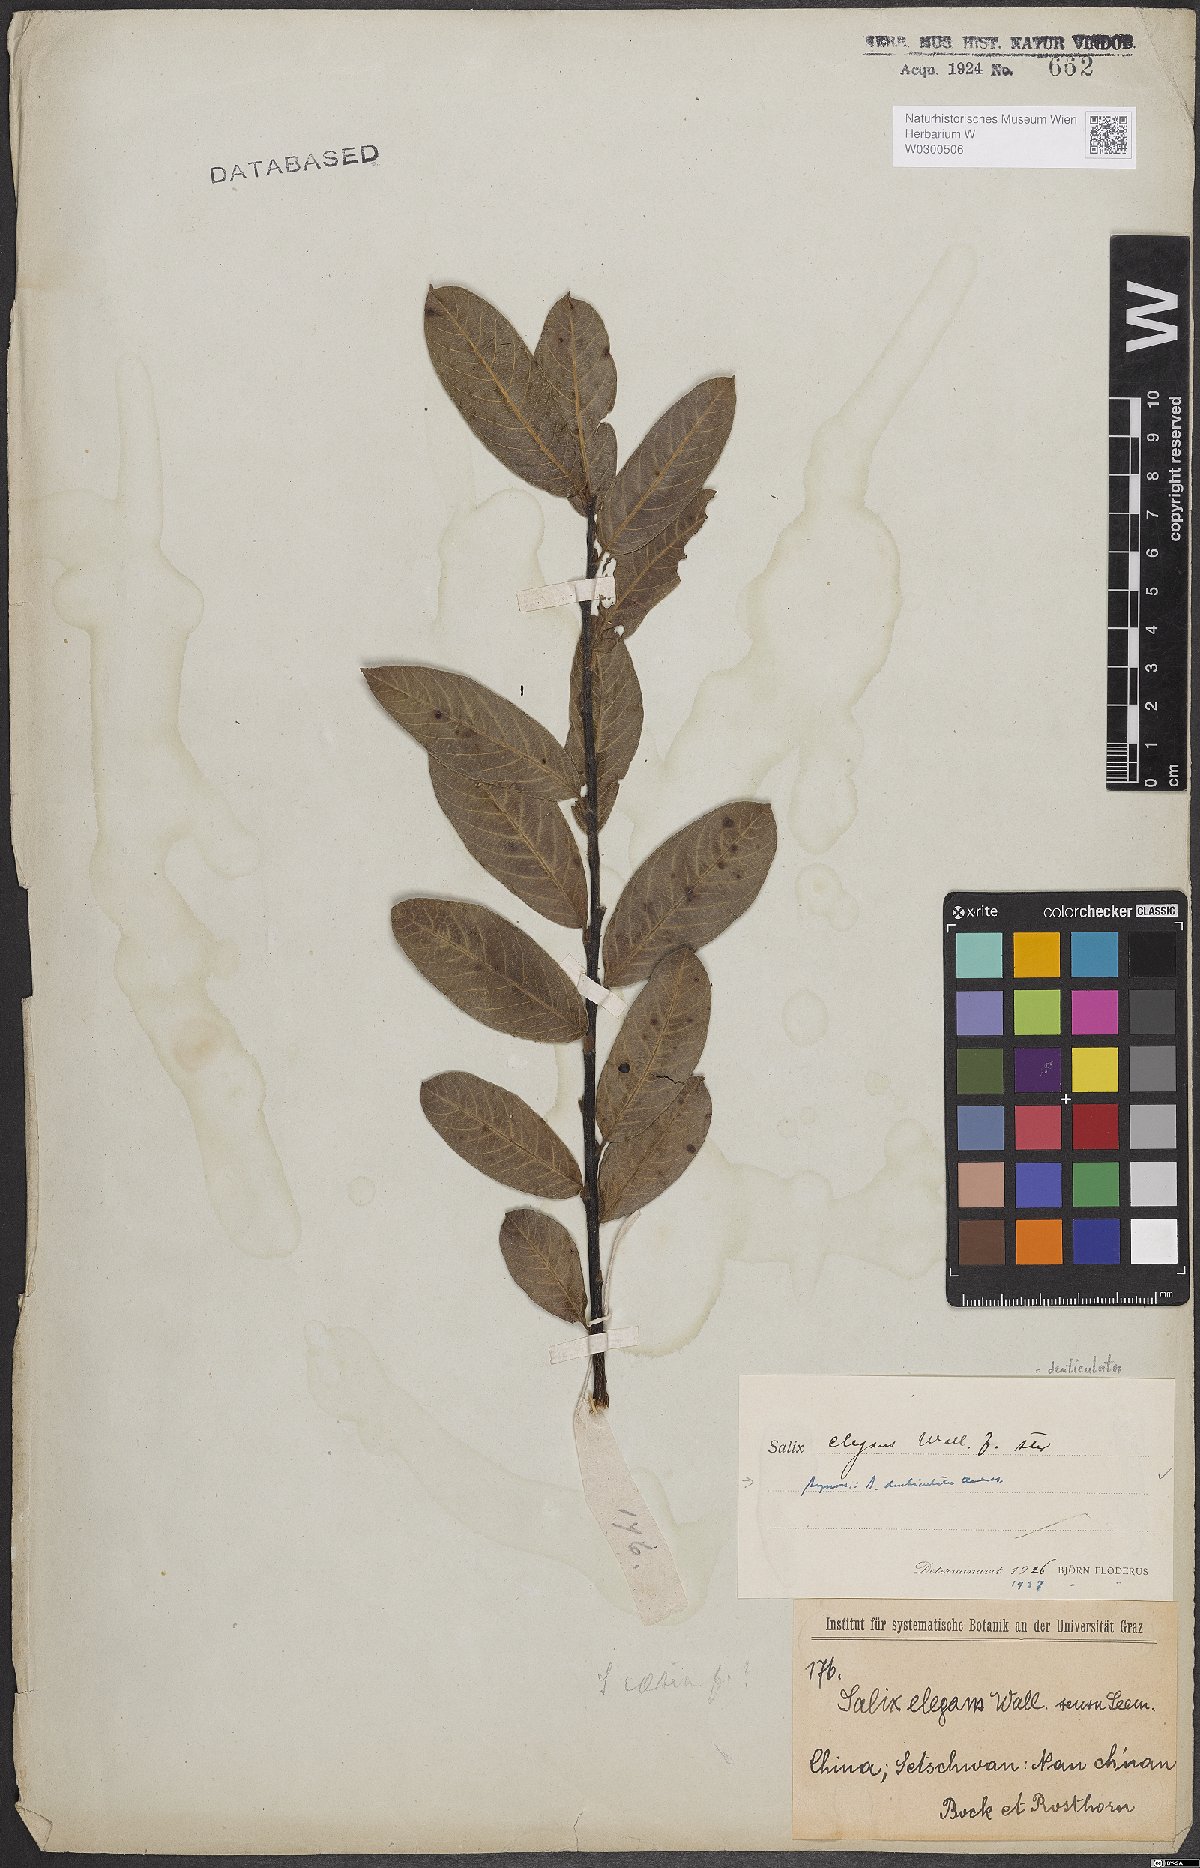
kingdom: Plantae
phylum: Tracheophyta
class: Magnoliopsida
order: Malpighiales
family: Salicaceae
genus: Salix
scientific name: Salix denticulata
